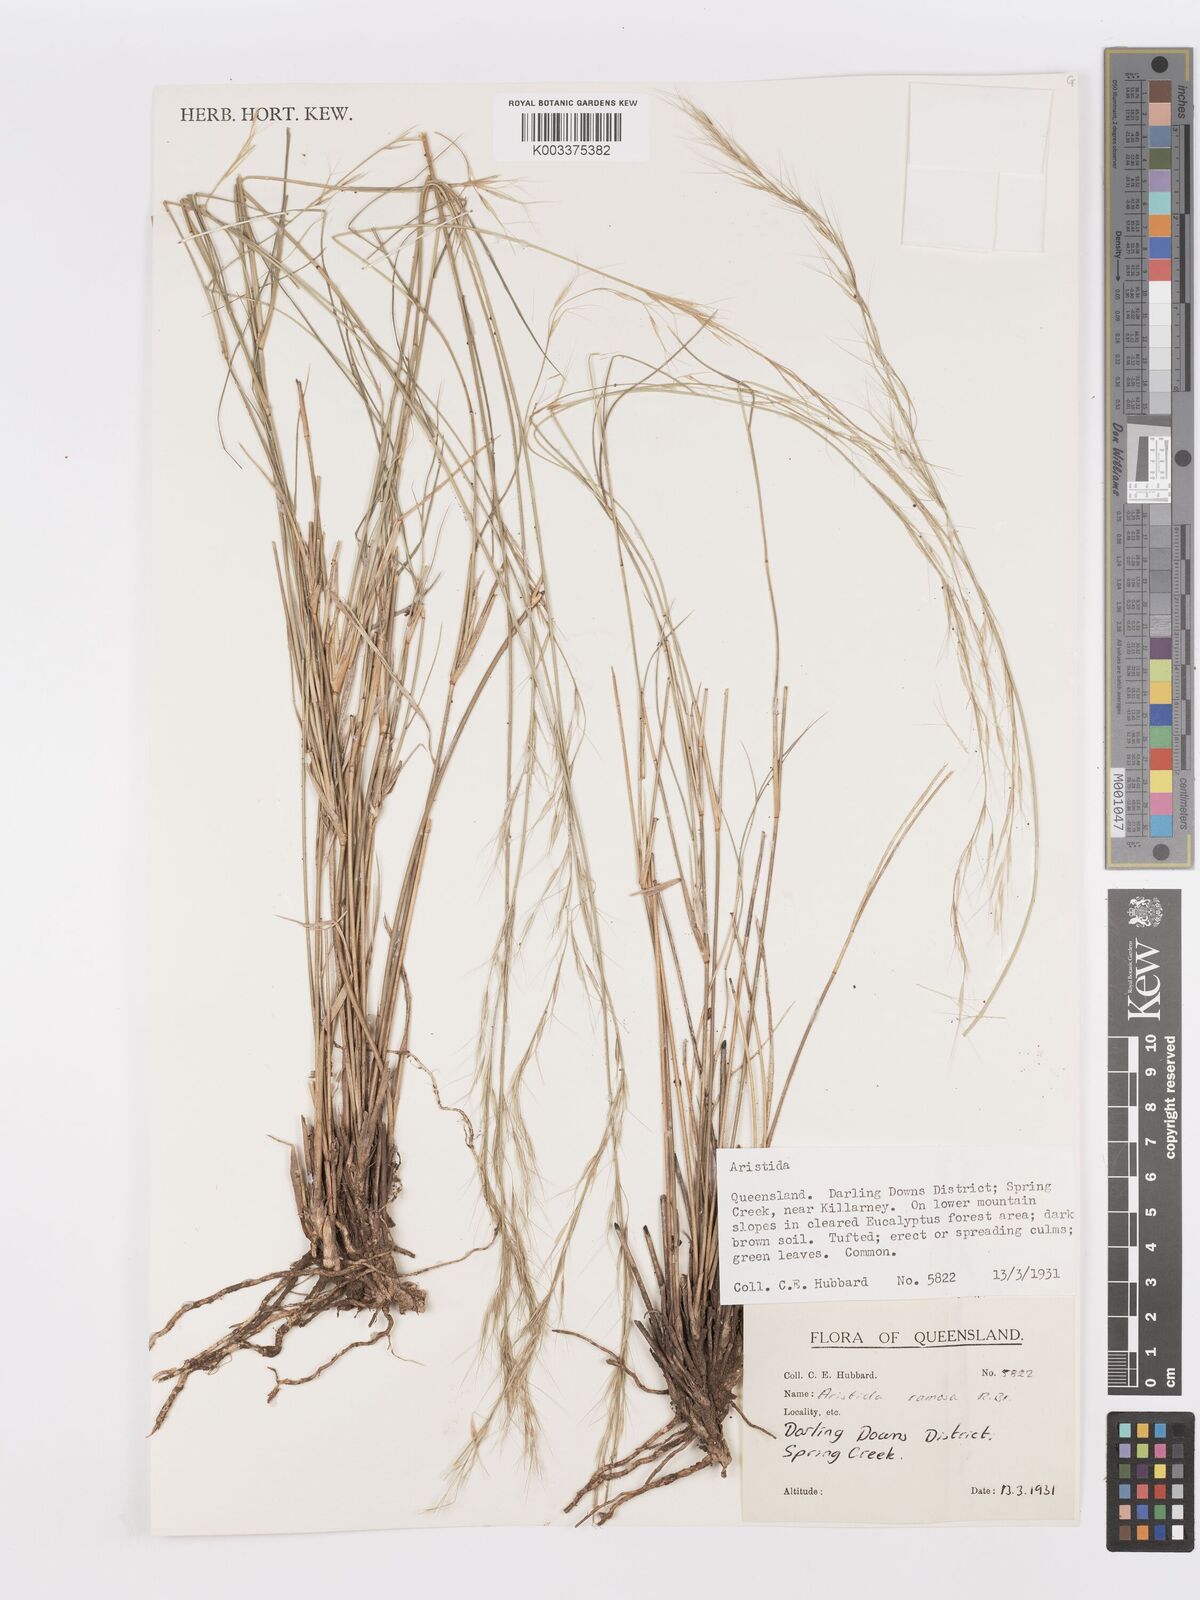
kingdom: Plantae
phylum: Tracheophyta
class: Liliopsida
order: Poales
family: Poaceae
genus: Aristida
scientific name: Aristida ramosa
